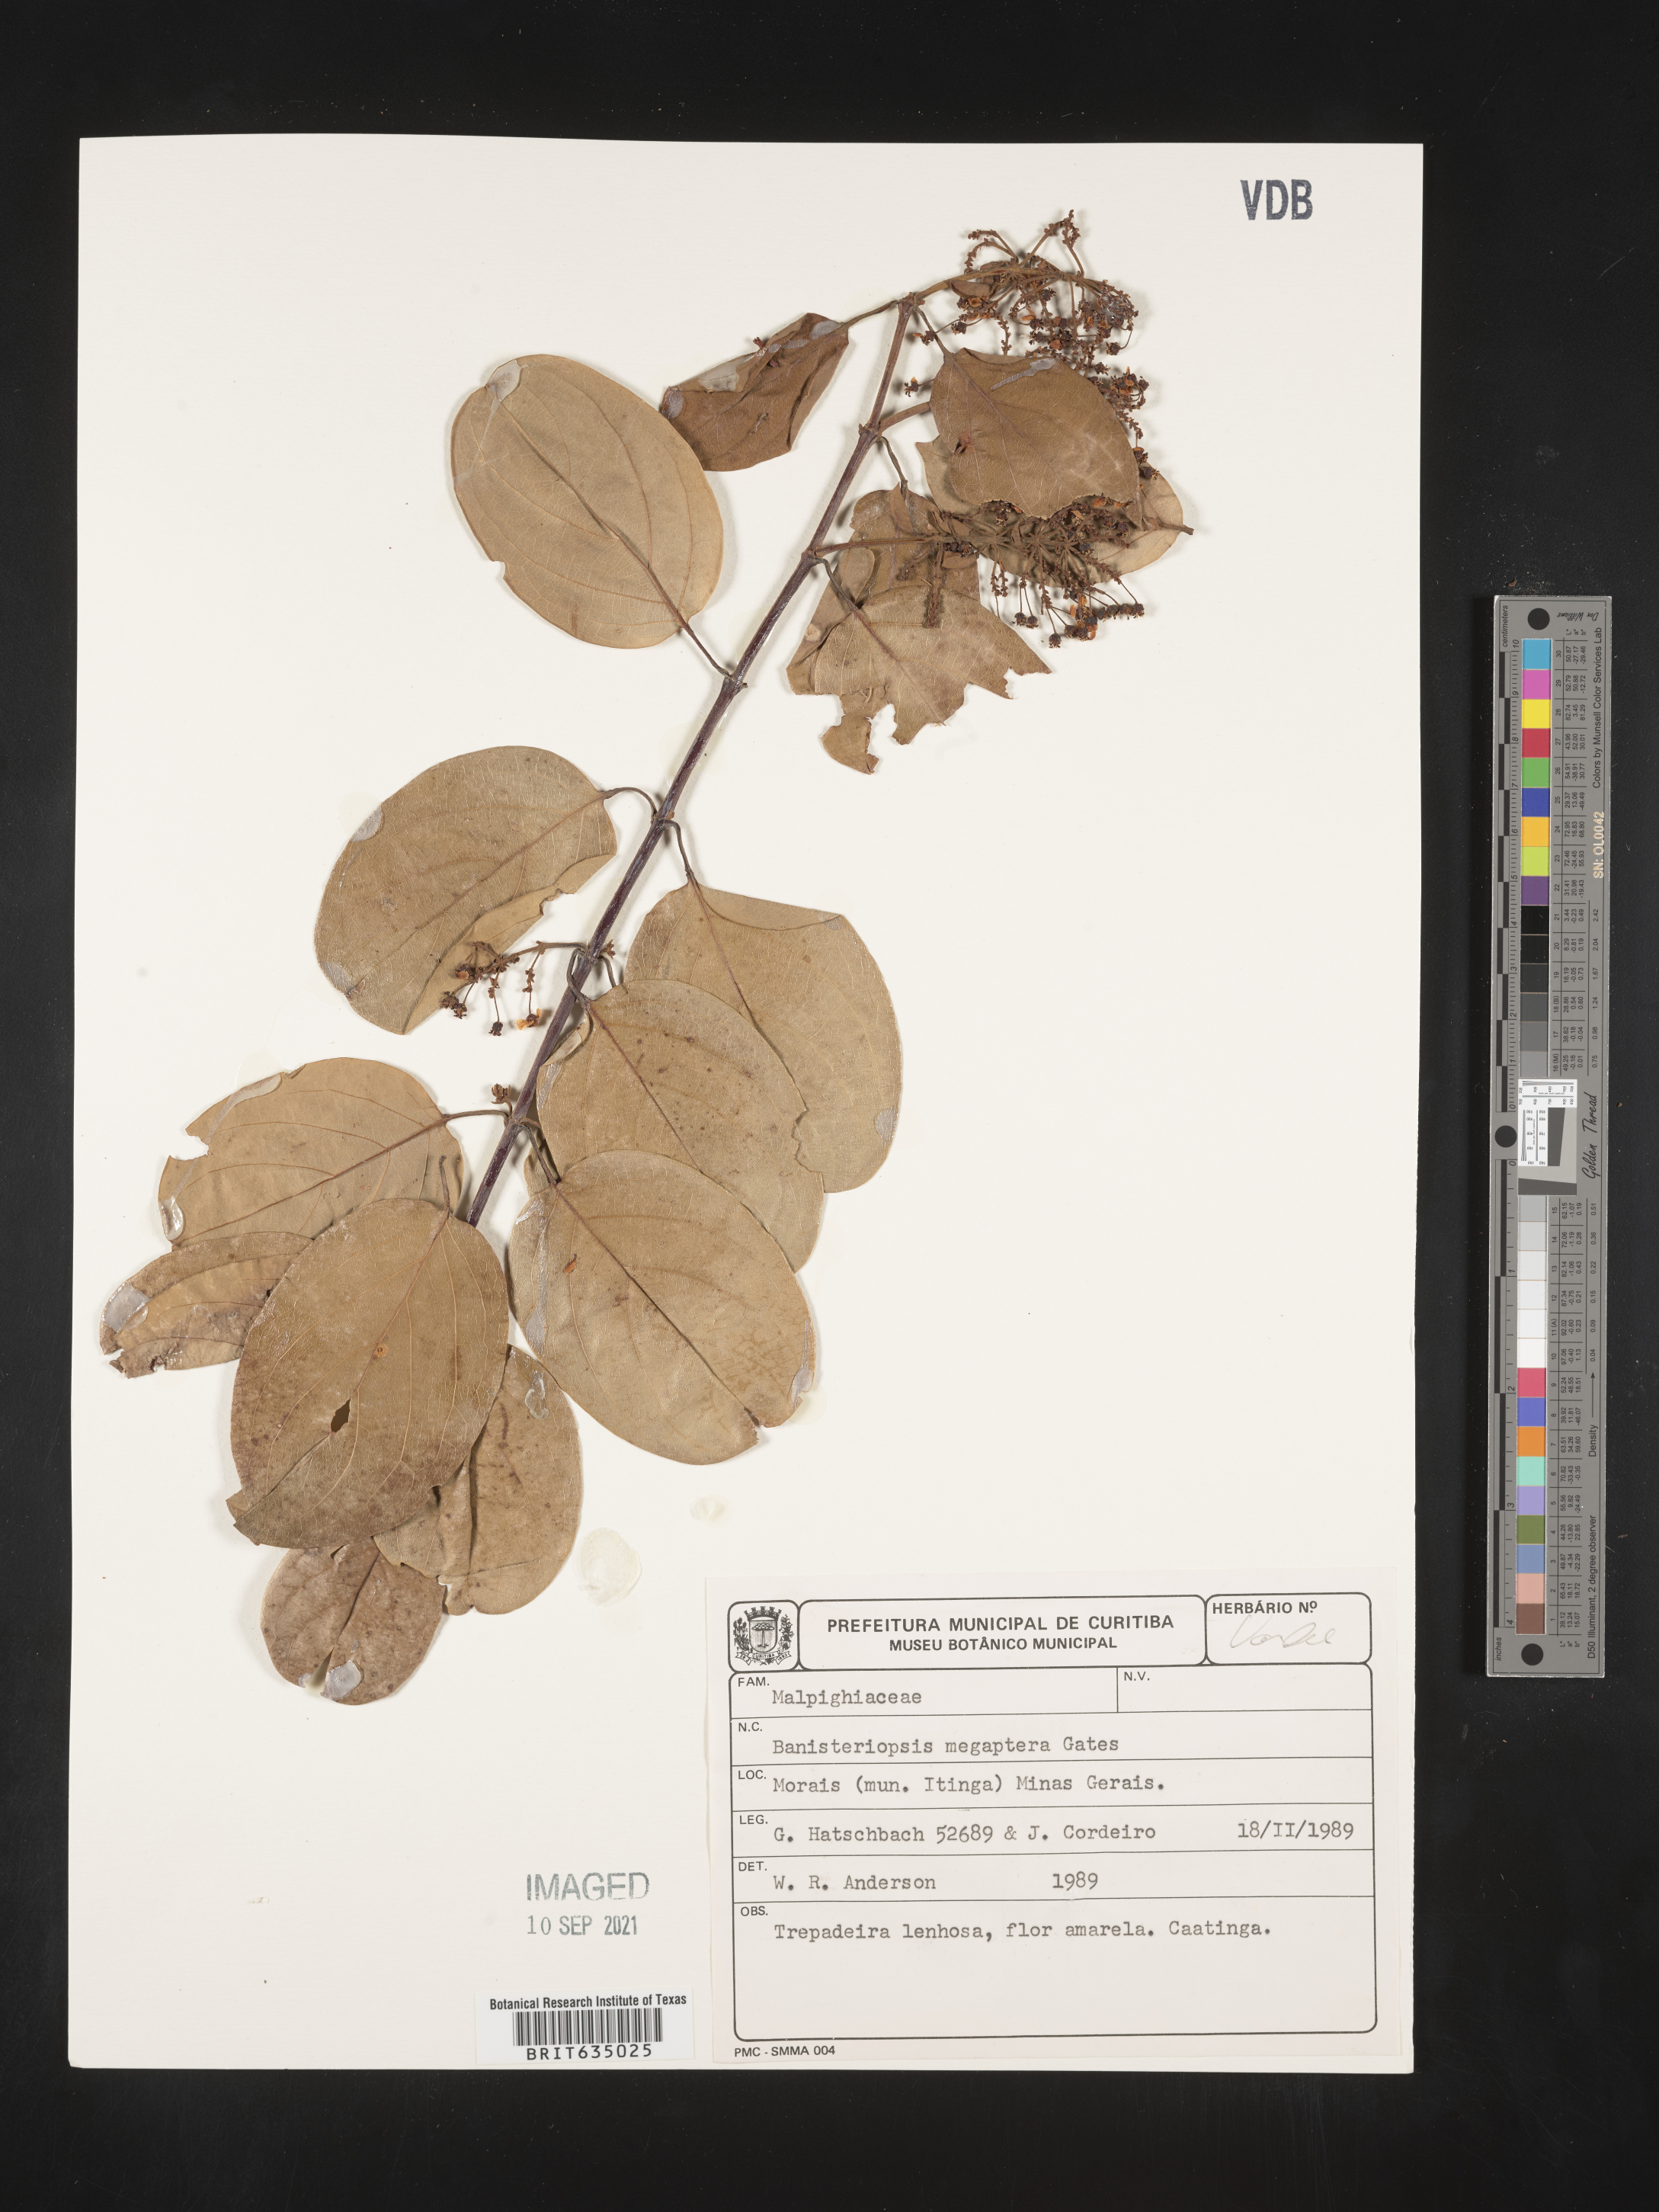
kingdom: Plantae
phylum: Tracheophyta
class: Magnoliopsida
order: Malpighiales
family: Malpighiaceae
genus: Banisteriopsis
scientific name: Banisteriopsis
